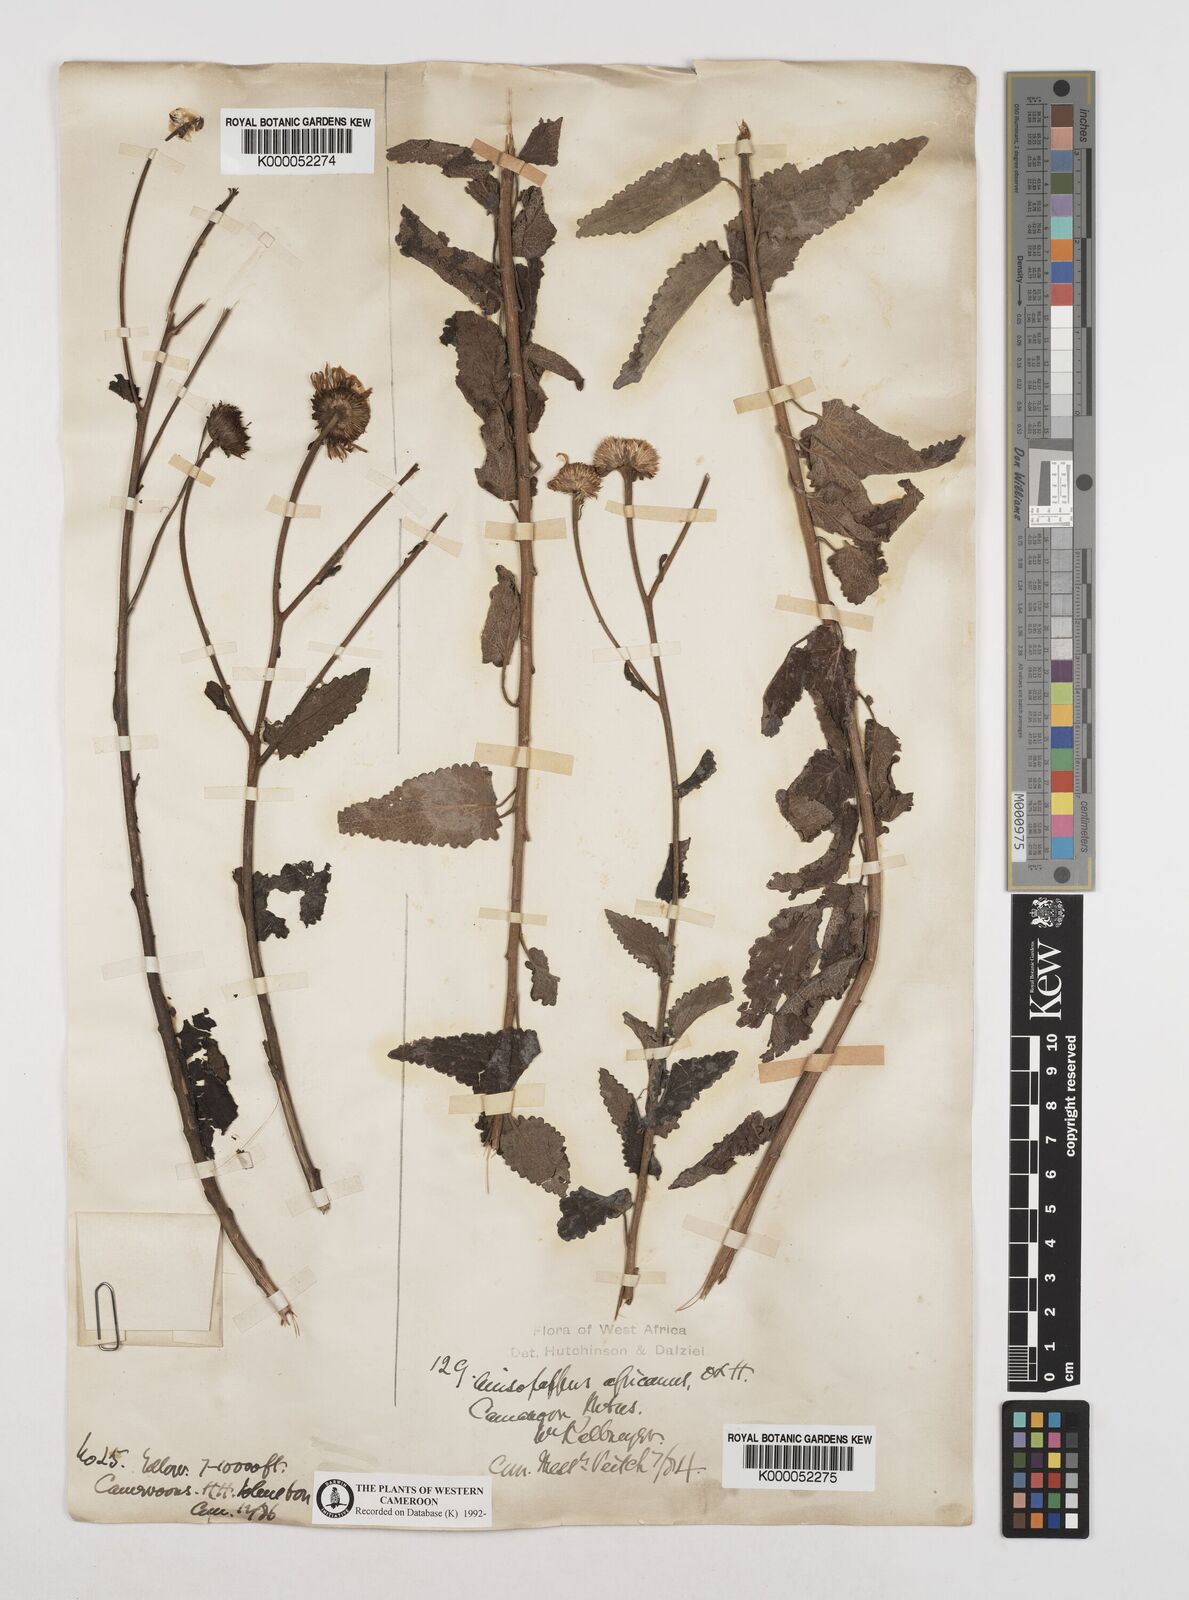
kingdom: Plantae
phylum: Tracheophyta
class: Magnoliopsida
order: Asterales
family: Asteraceae
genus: Anisopappus
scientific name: Anisopappus chinensis
